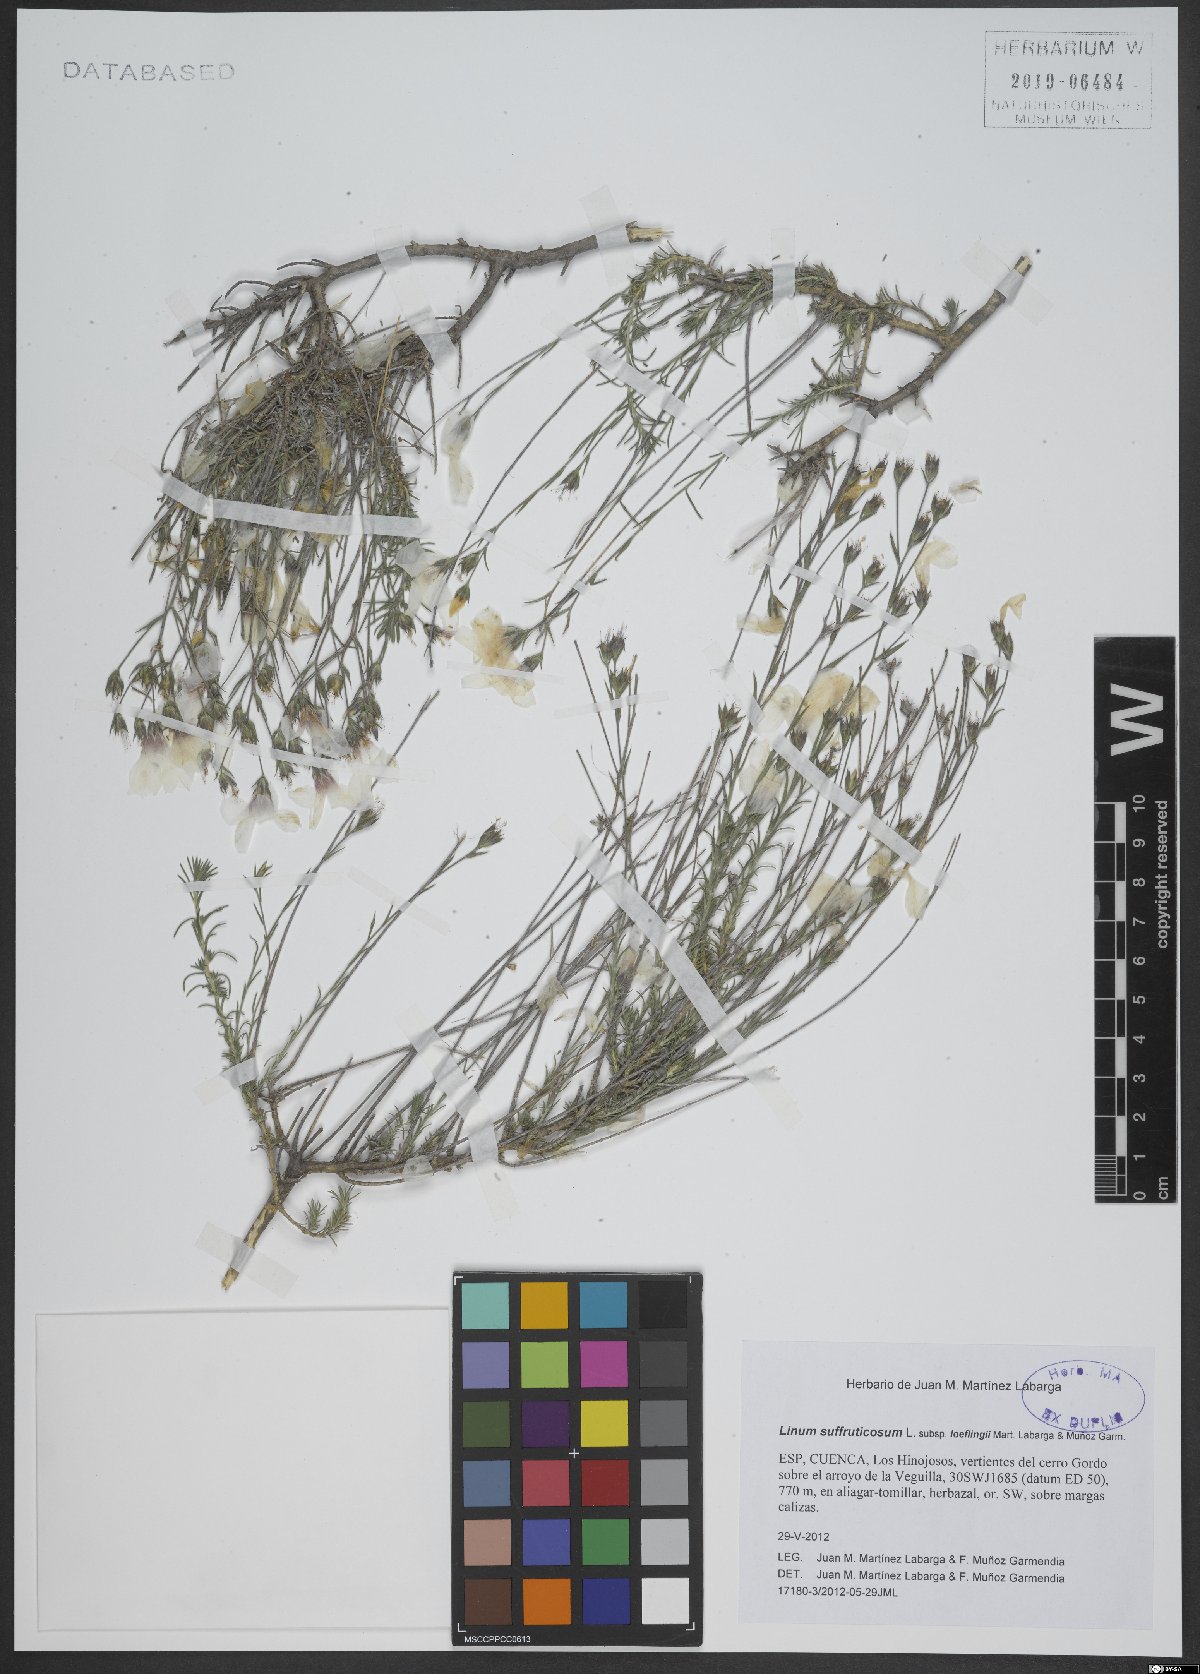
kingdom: Plantae
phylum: Tracheophyta
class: Magnoliopsida
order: Malpighiales
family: Linaceae
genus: Linum
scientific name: Linum suffruticosum
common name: White flax
